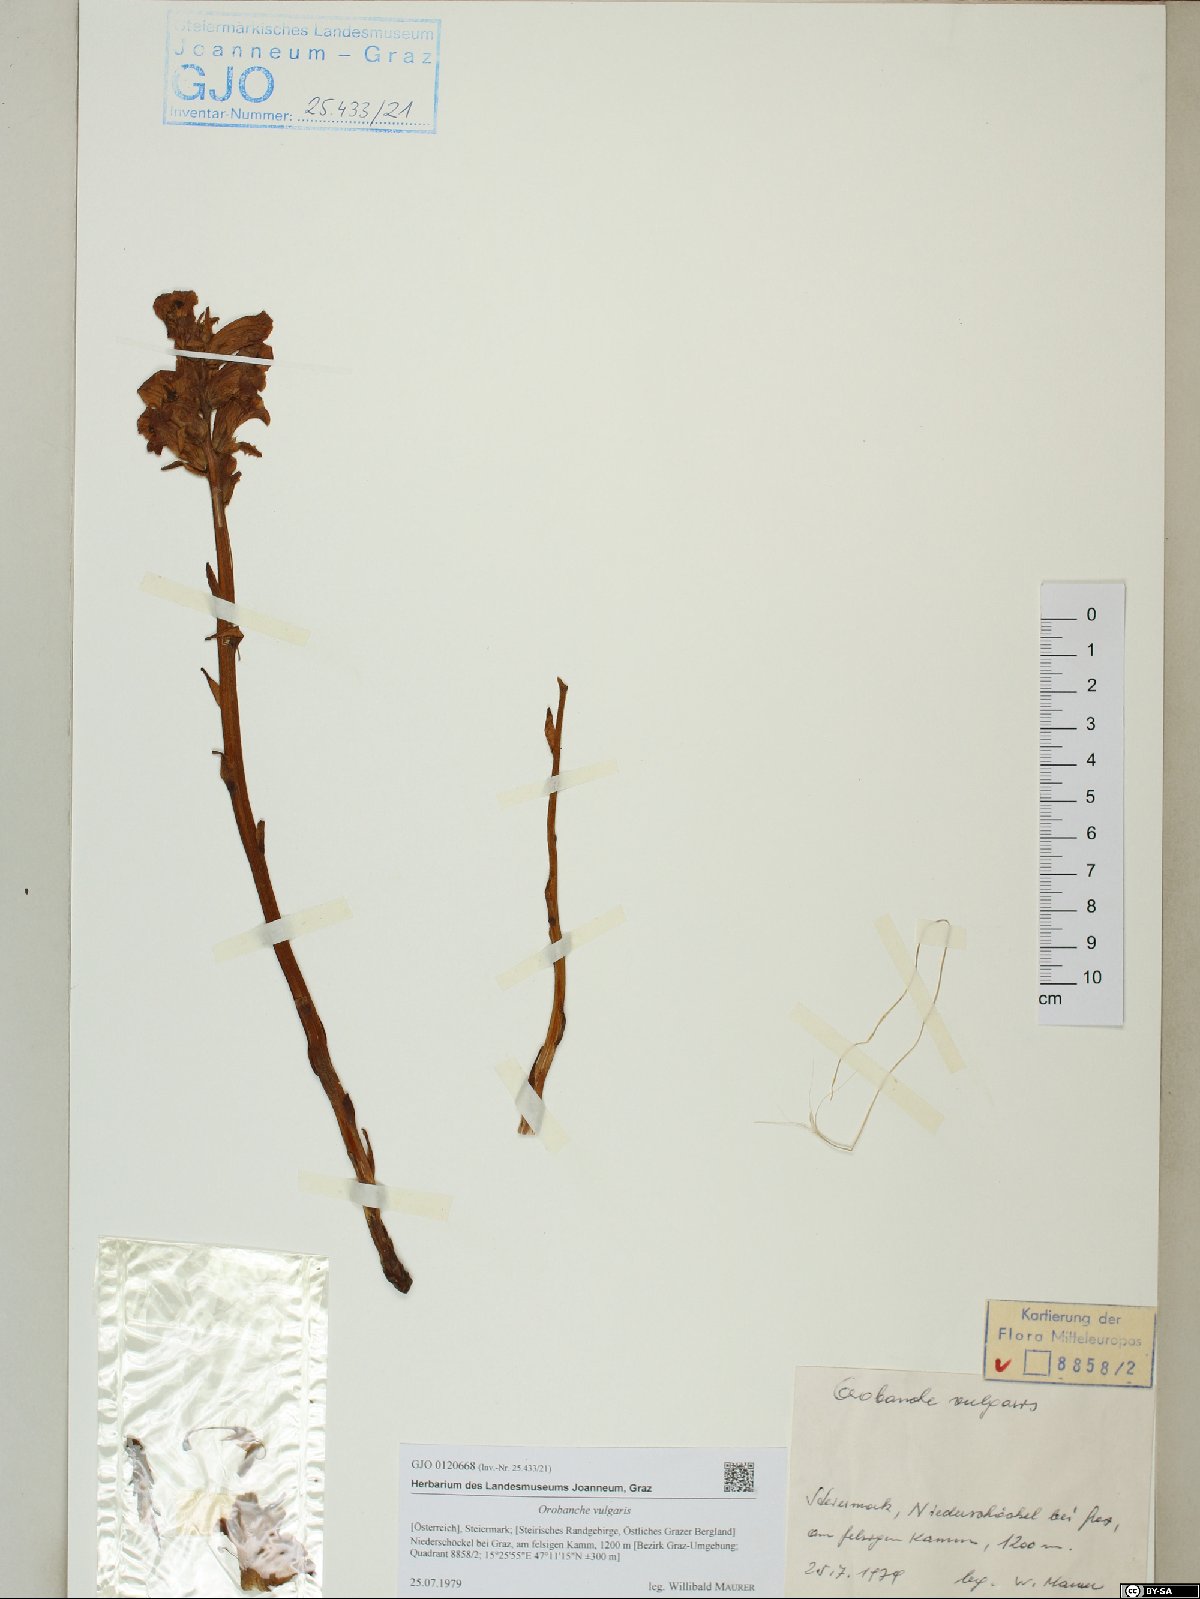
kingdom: Plantae
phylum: Tracheophyta
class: Magnoliopsida
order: Lamiales
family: Orobanchaceae
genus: Orobanche
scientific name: Orobanche caryophyllacea
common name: Bedstraw broomrape
